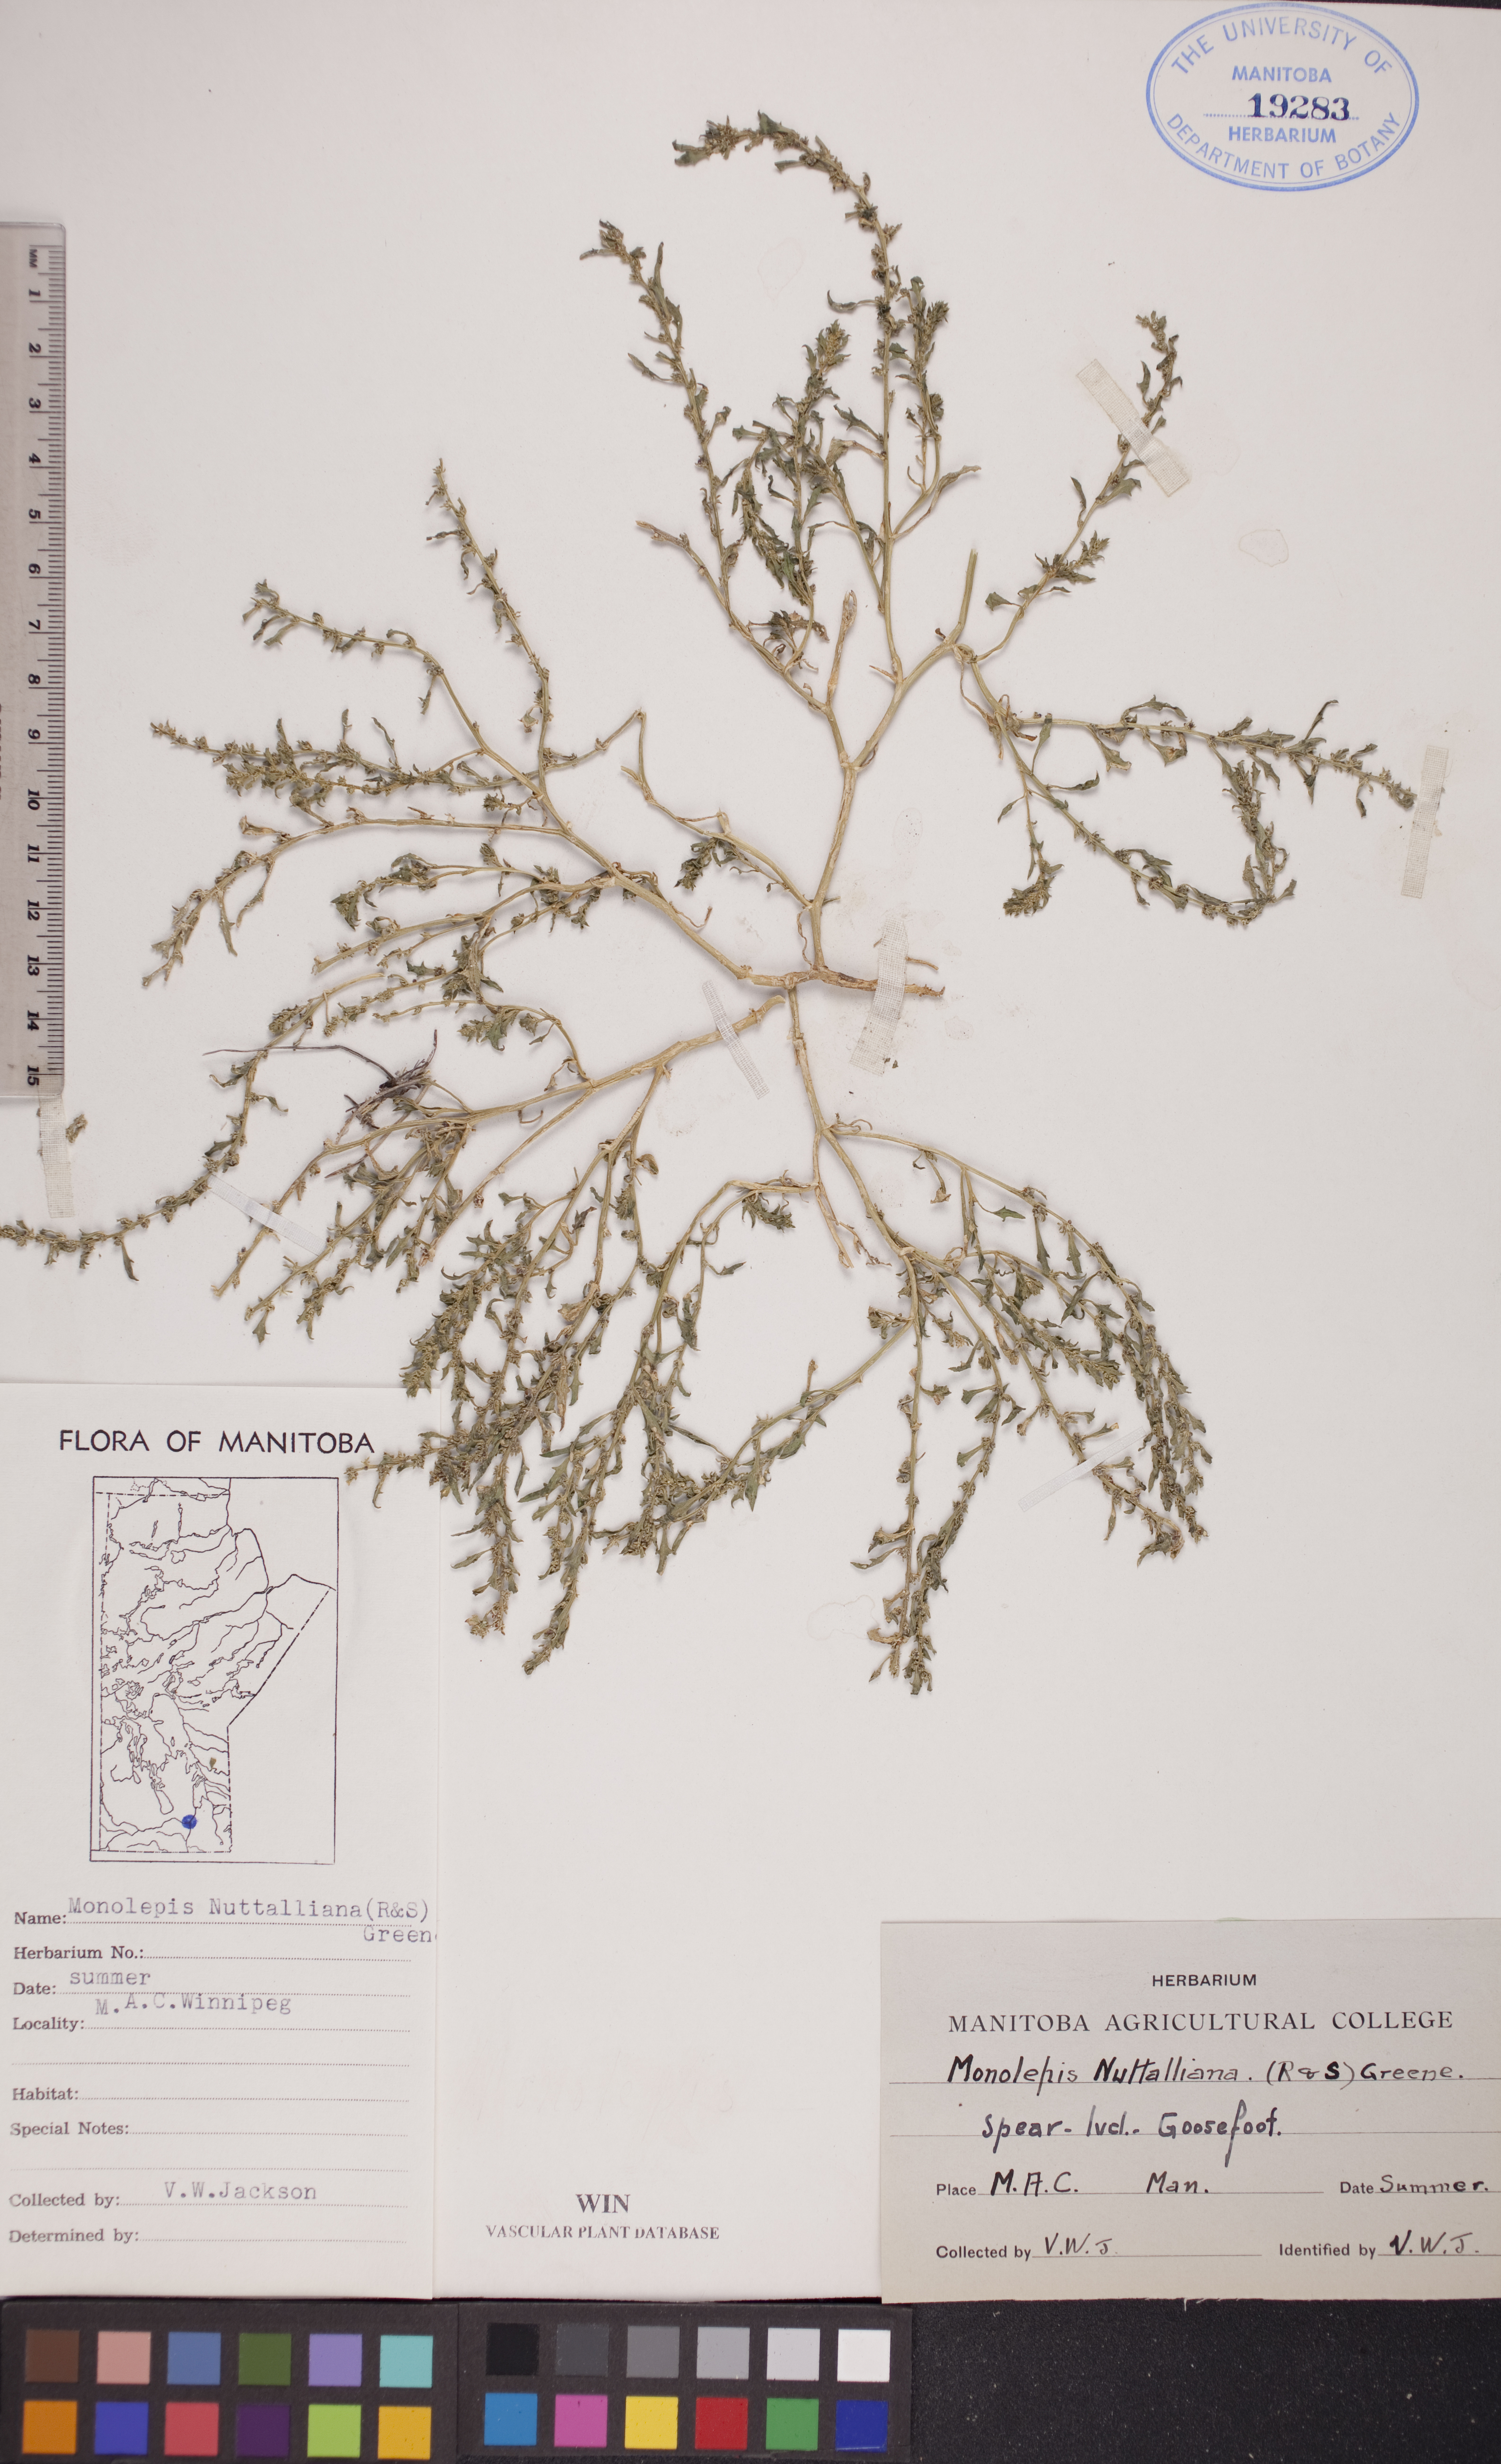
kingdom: Plantae
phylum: Tracheophyta
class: Magnoliopsida
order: Caryophyllales
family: Amaranthaceae
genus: Blitum
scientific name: Blitum nuttallianum
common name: Poverty-weed
